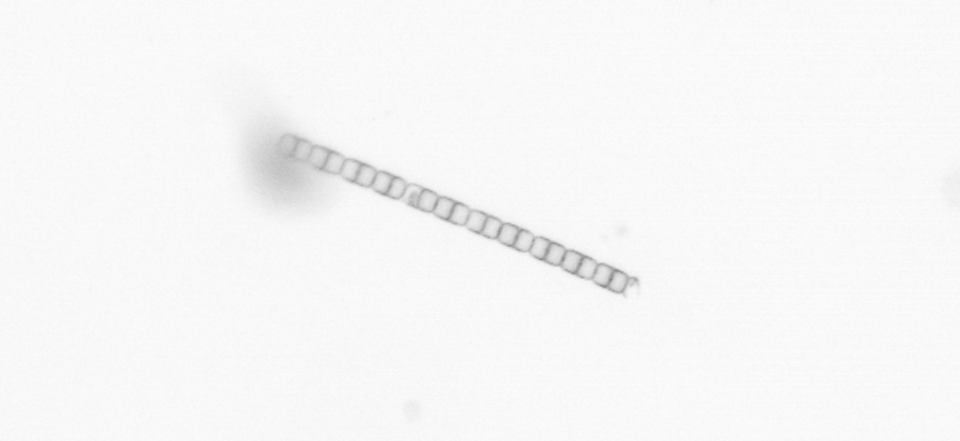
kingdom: Chromista
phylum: Ochrophyta
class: Bacillariophyceae
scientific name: Bacillariophyceae
